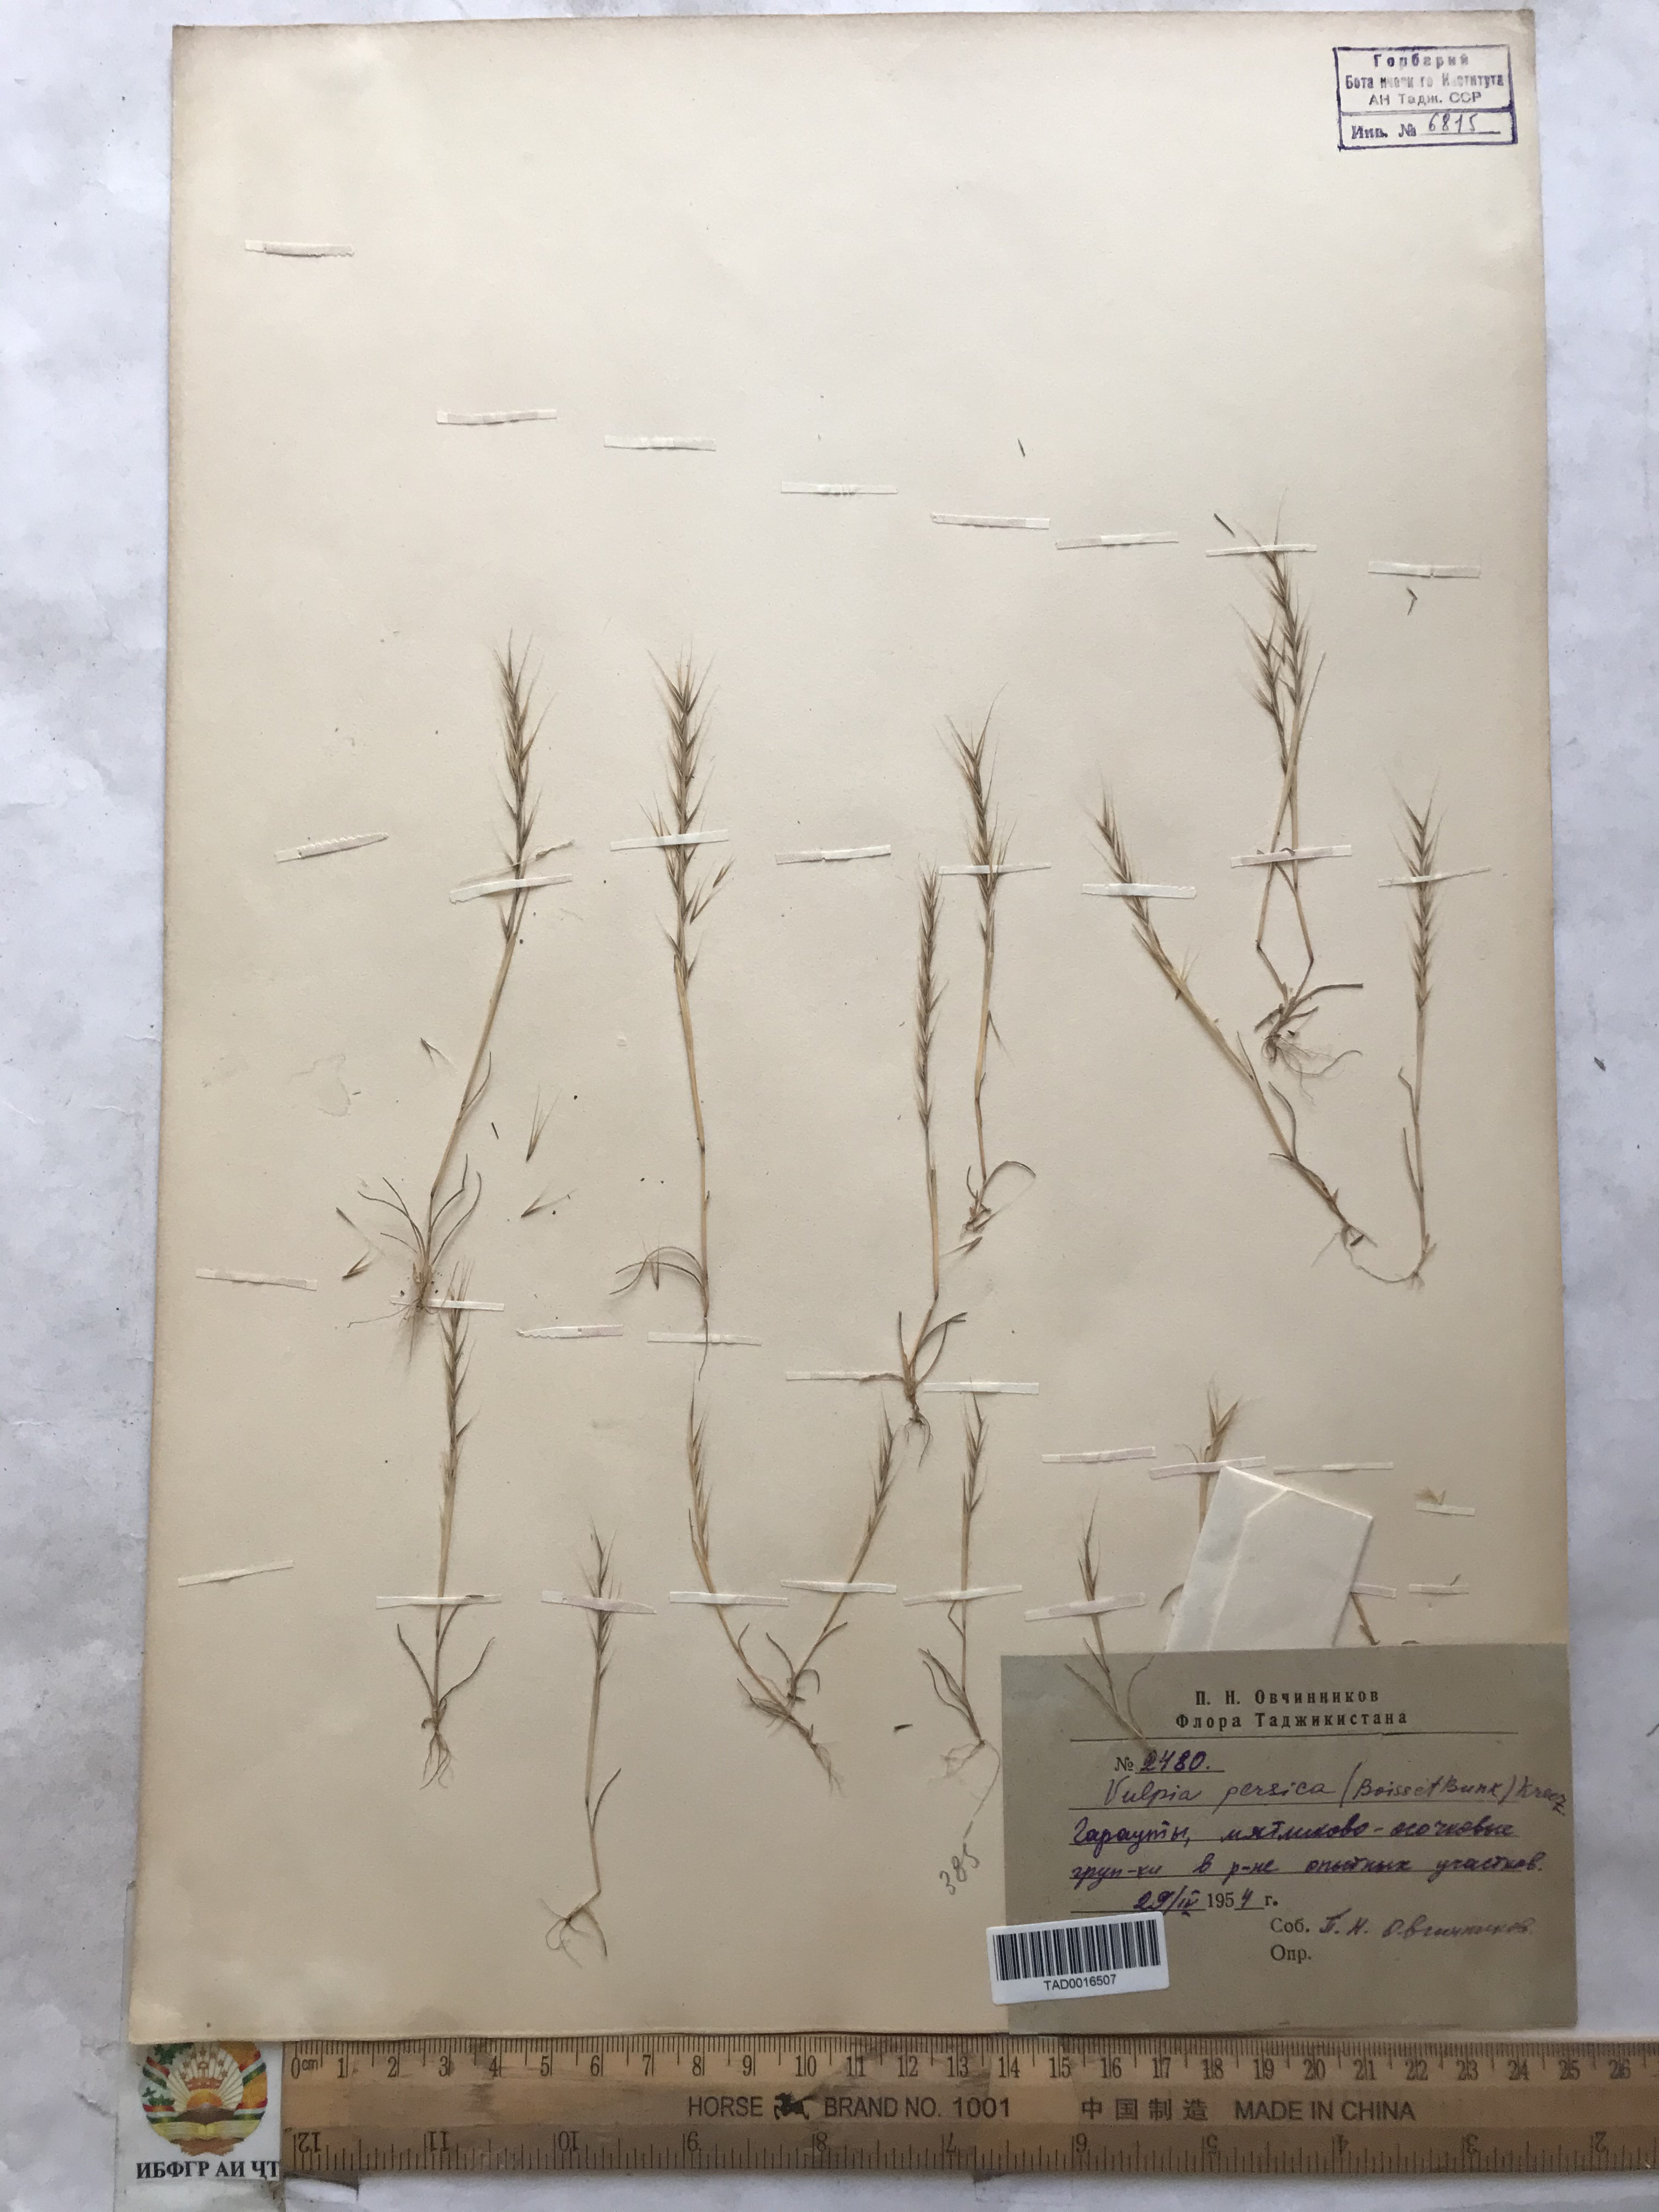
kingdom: Plantae
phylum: Tracheophyta
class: Liliopsida
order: Poales
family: Poaceae
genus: Festuca
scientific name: Festuca Vulpia persica
